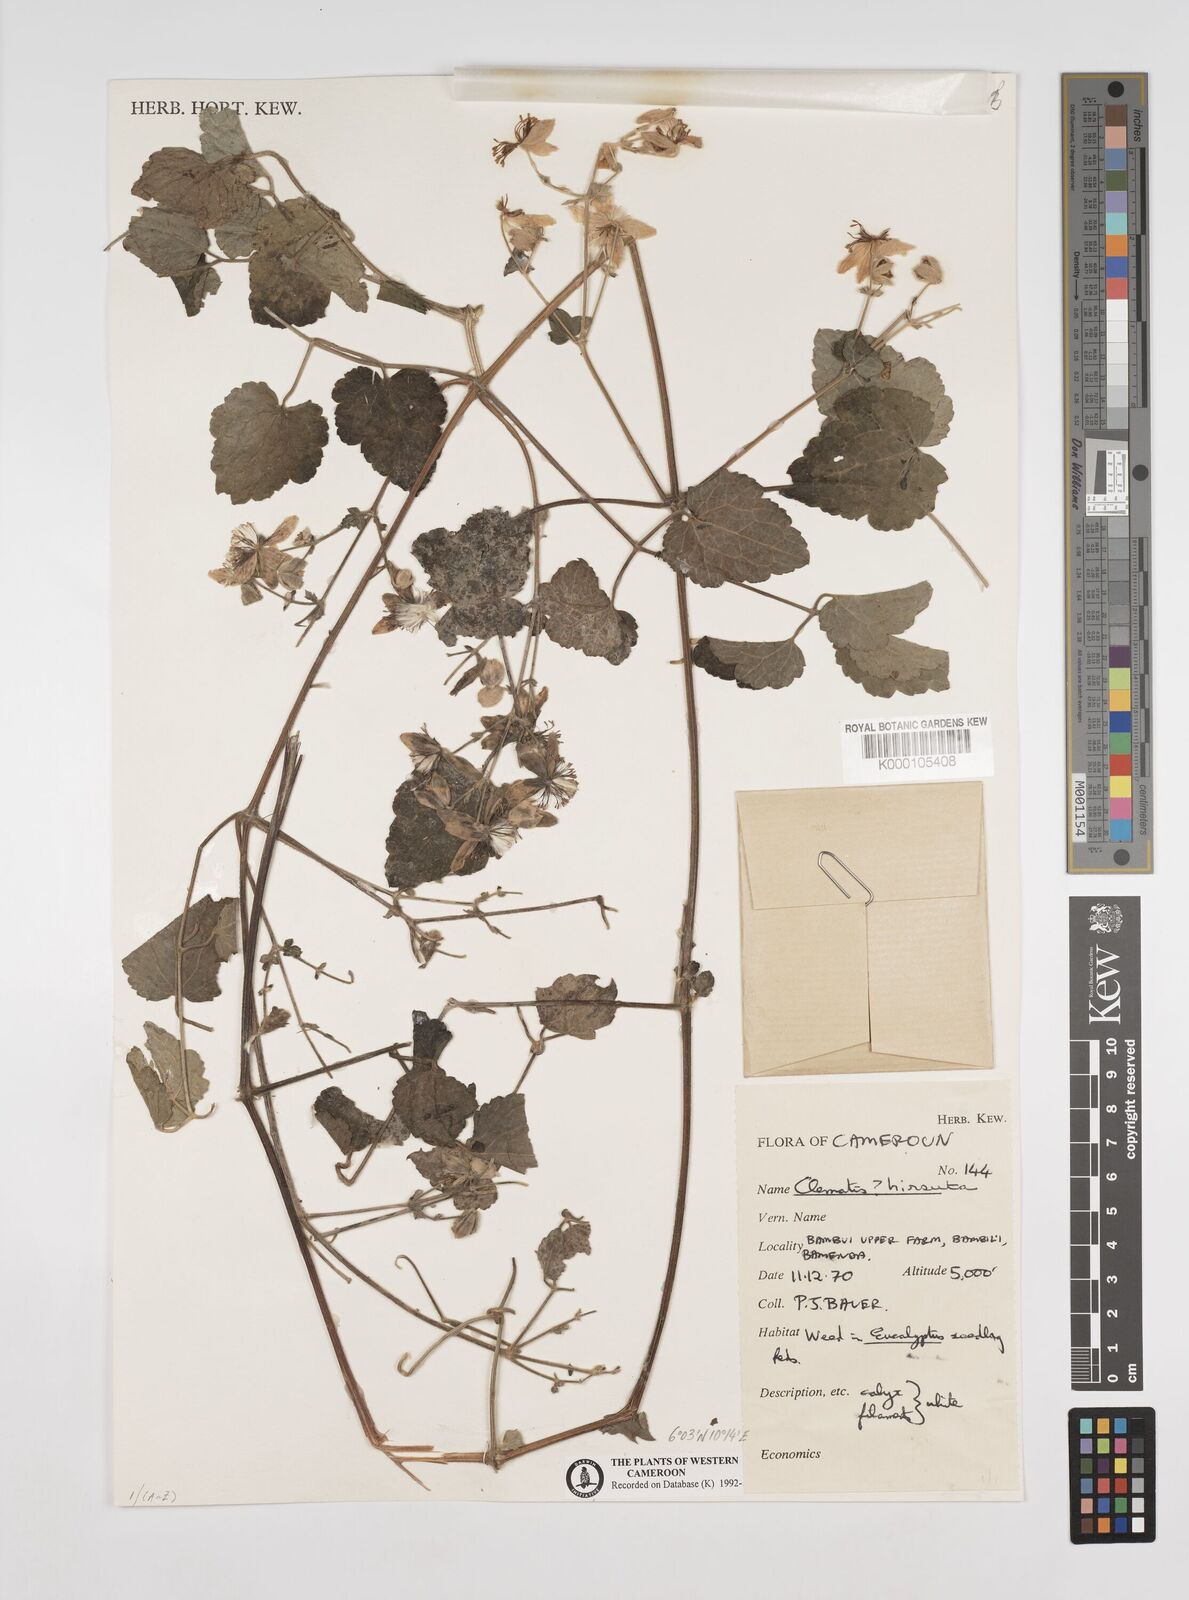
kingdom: Plantae
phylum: Tracheophyta
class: Magnoliopsida
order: Ranunculales
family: Ranunculaceae
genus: Clematis
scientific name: Clematis hirsuta
